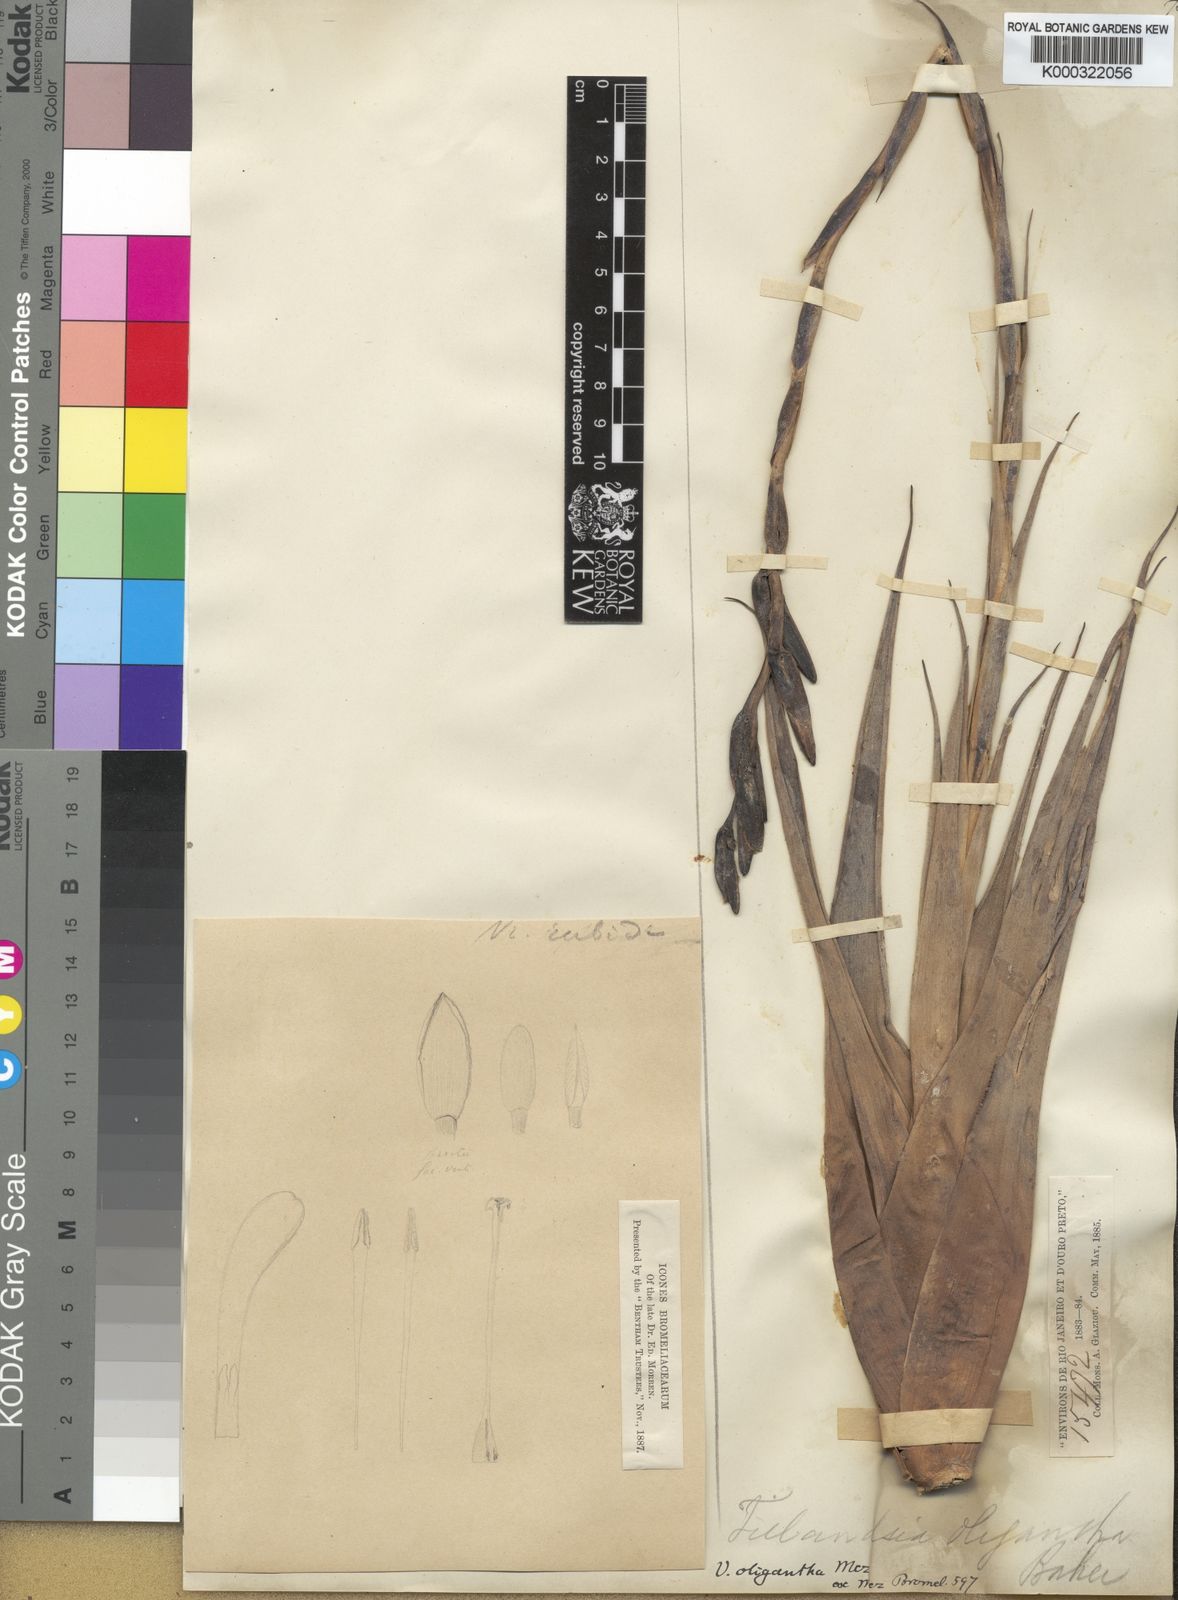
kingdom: Plantae
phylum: Tracheophyta
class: Liliopsida
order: Poales
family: Bromeliaceae
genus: Vriesea
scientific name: Vriesea oligantha
